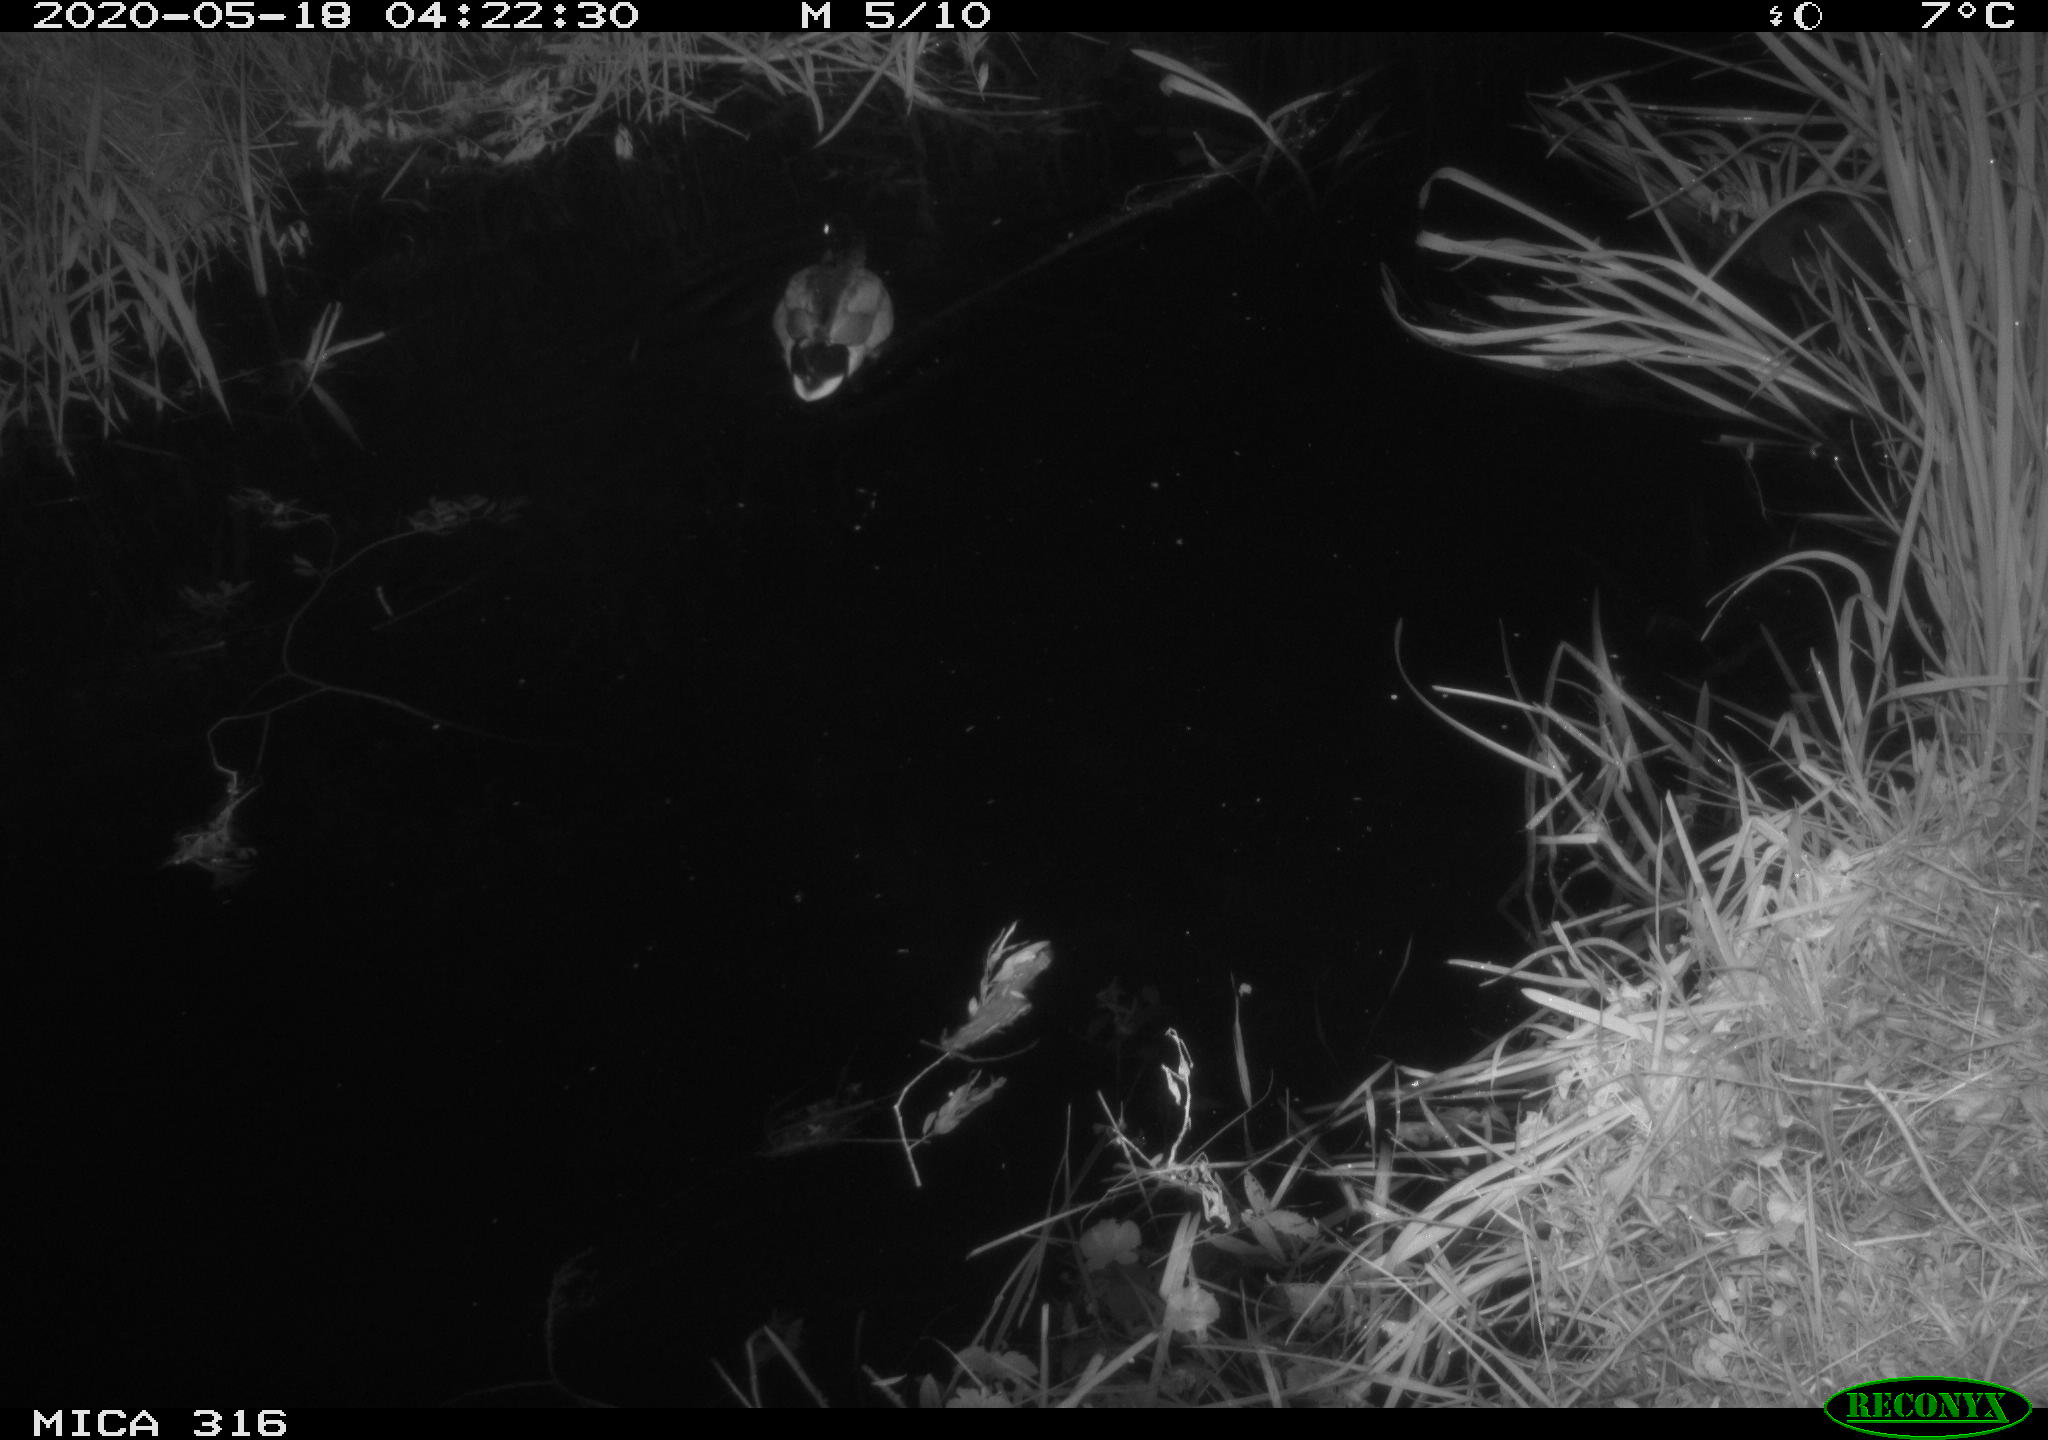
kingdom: Animalia
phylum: Chordata
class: Aves
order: Anseriformes
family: Anatidae
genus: Anas
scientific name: Anas platyrhynchos
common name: Mallard
